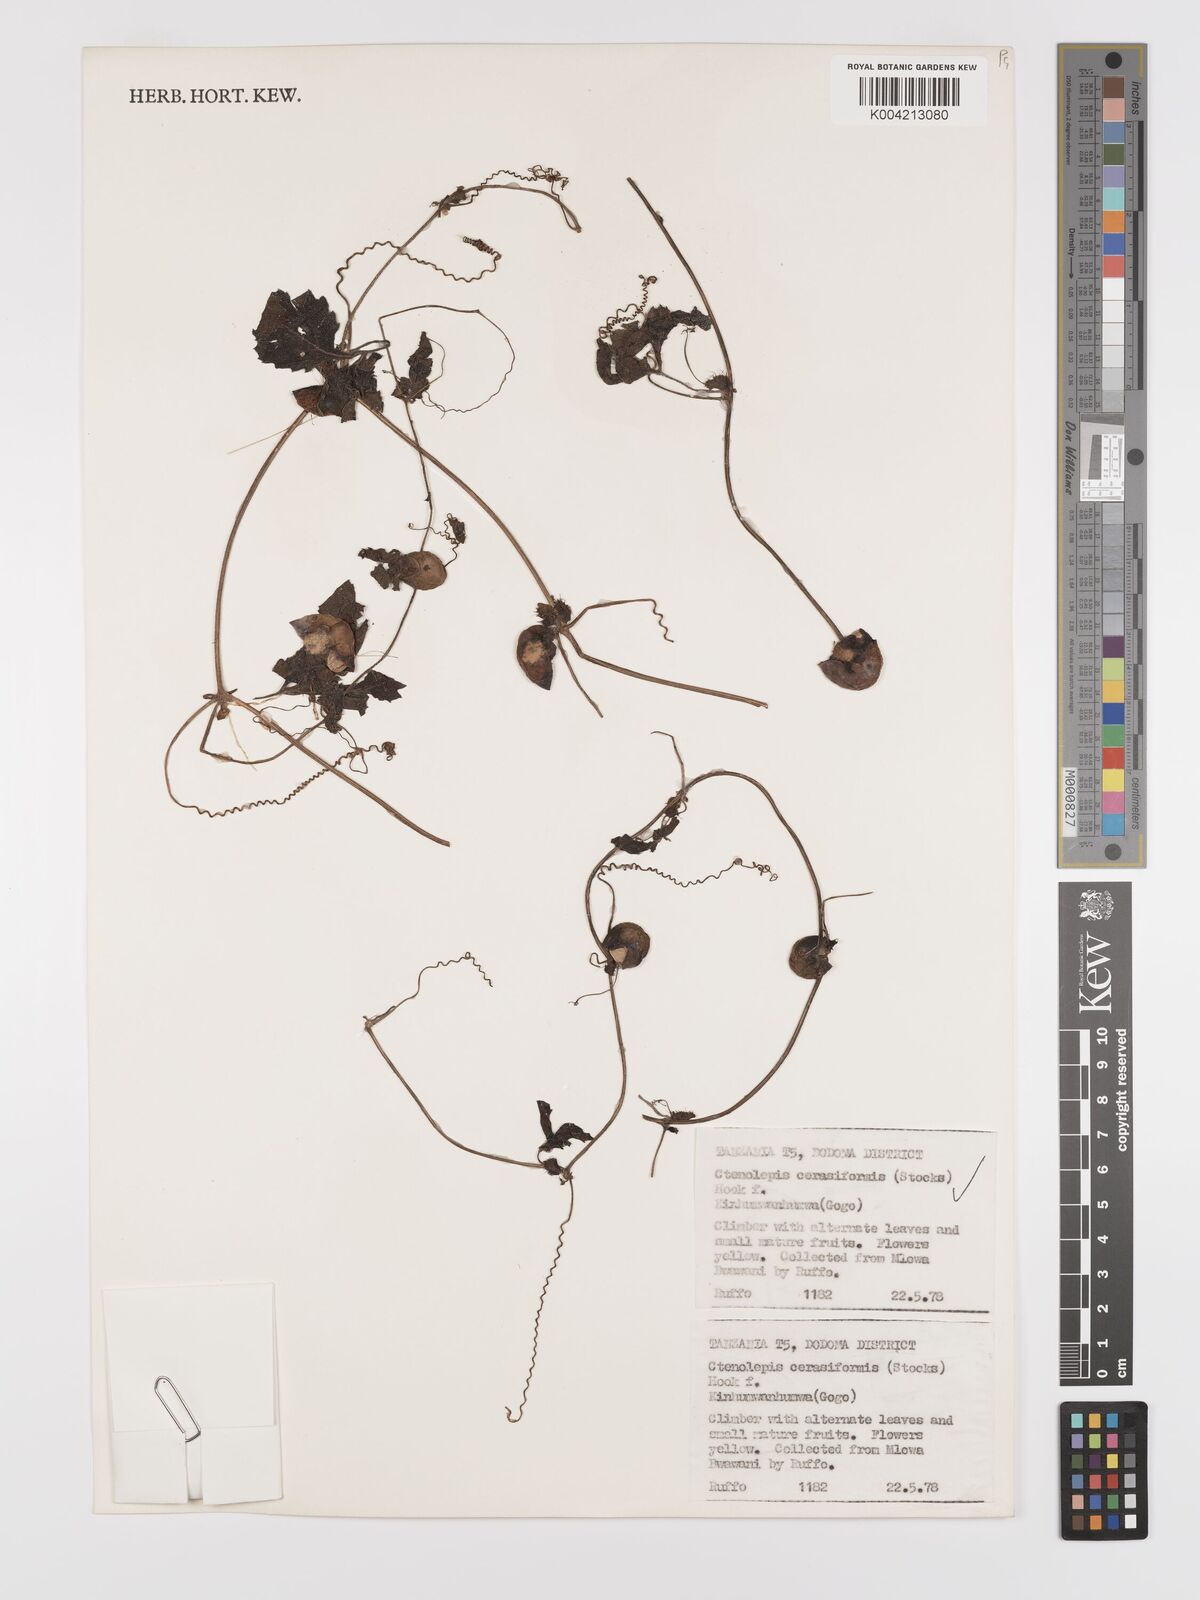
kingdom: Plantae
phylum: Tracheophyta
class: Magnoliopsida
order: Cucurbitales
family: Cucurbitaceae
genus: Blastania
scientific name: Blastania
